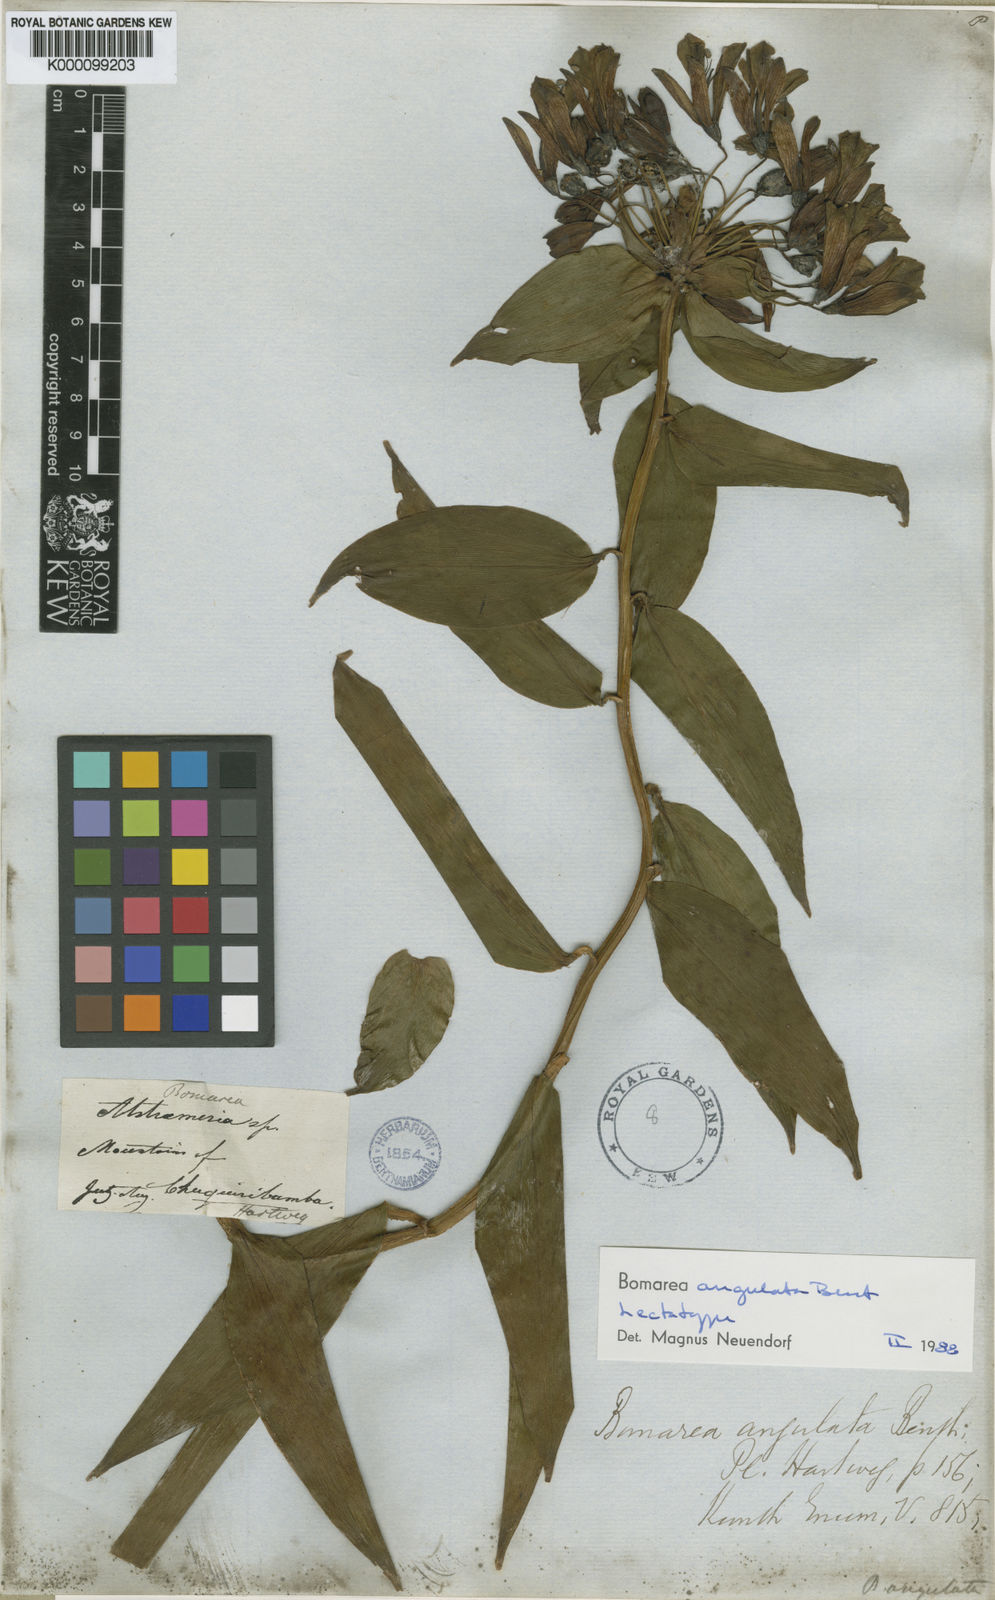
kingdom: Plantae
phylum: Tracheophyta
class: Liliopsida
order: Liliales
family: Alstroemeriaceae
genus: Bomarea
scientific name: Bomarea angulata
